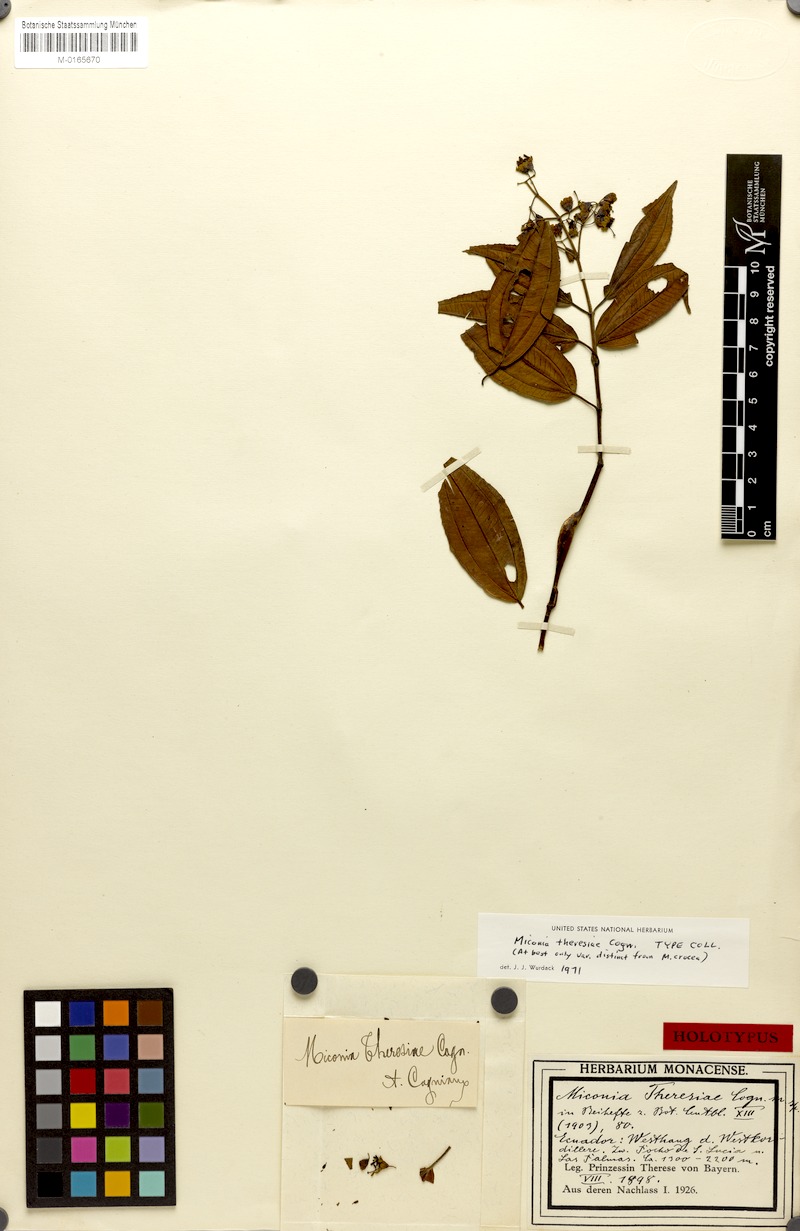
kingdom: Plantae
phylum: Tracheophyta
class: Magnoliopsida
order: Myrtales
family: Melastomataceae
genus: Miconia
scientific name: Miconia crocea
